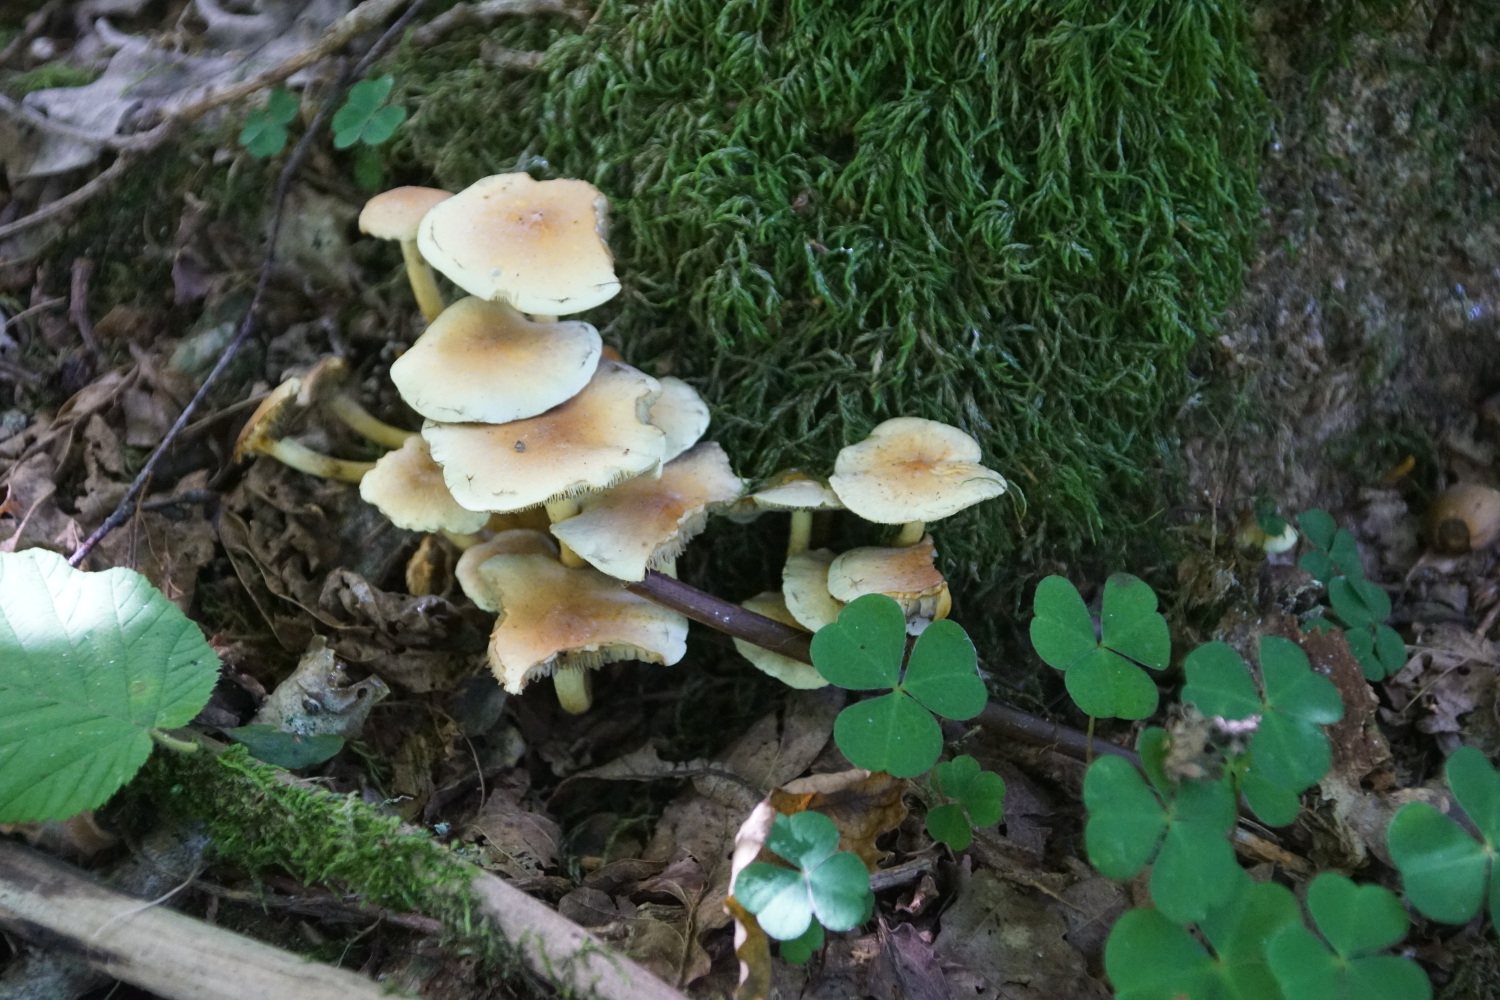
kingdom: Fungi
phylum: Basidiomycota
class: Agaricomycetes
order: Agaricales
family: Strophariaceae
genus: Hypholoma
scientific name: Hypholoma fasciculare
